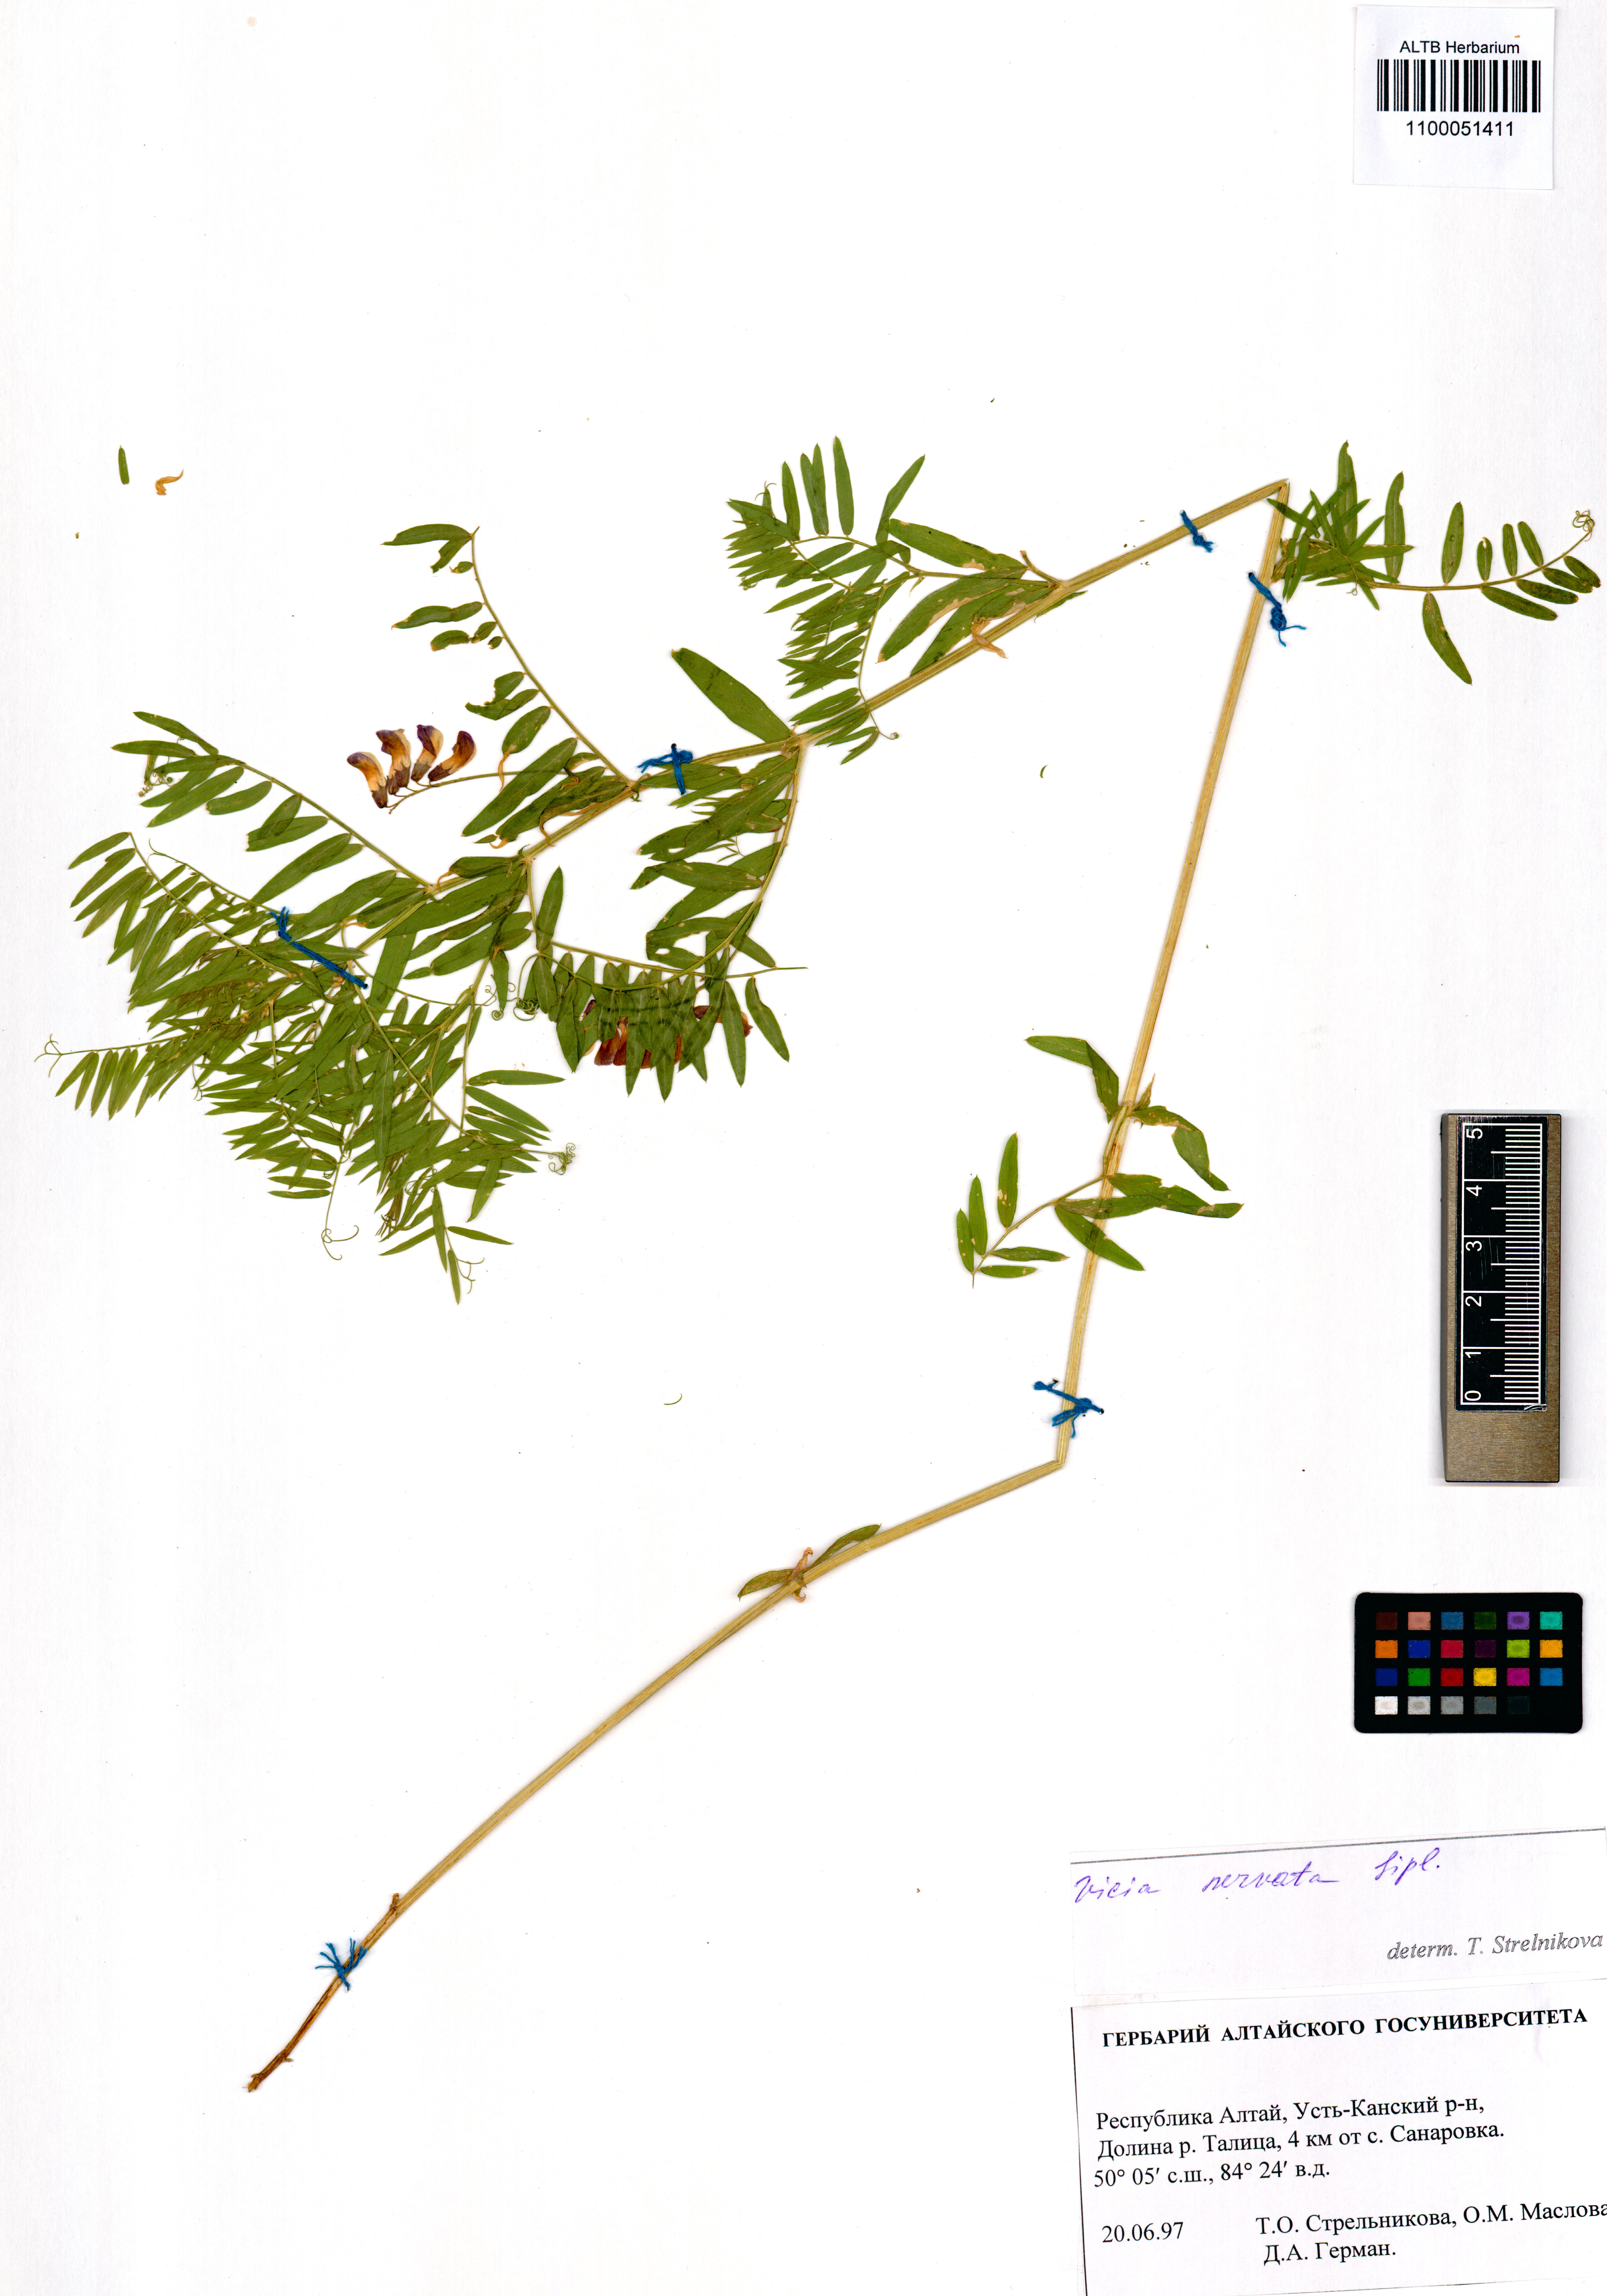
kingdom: Plantae
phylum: Tracheophyta
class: Magnoliopsida
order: Fabales
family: Fabaceae
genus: Vicia
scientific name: Vicia multicaulis
